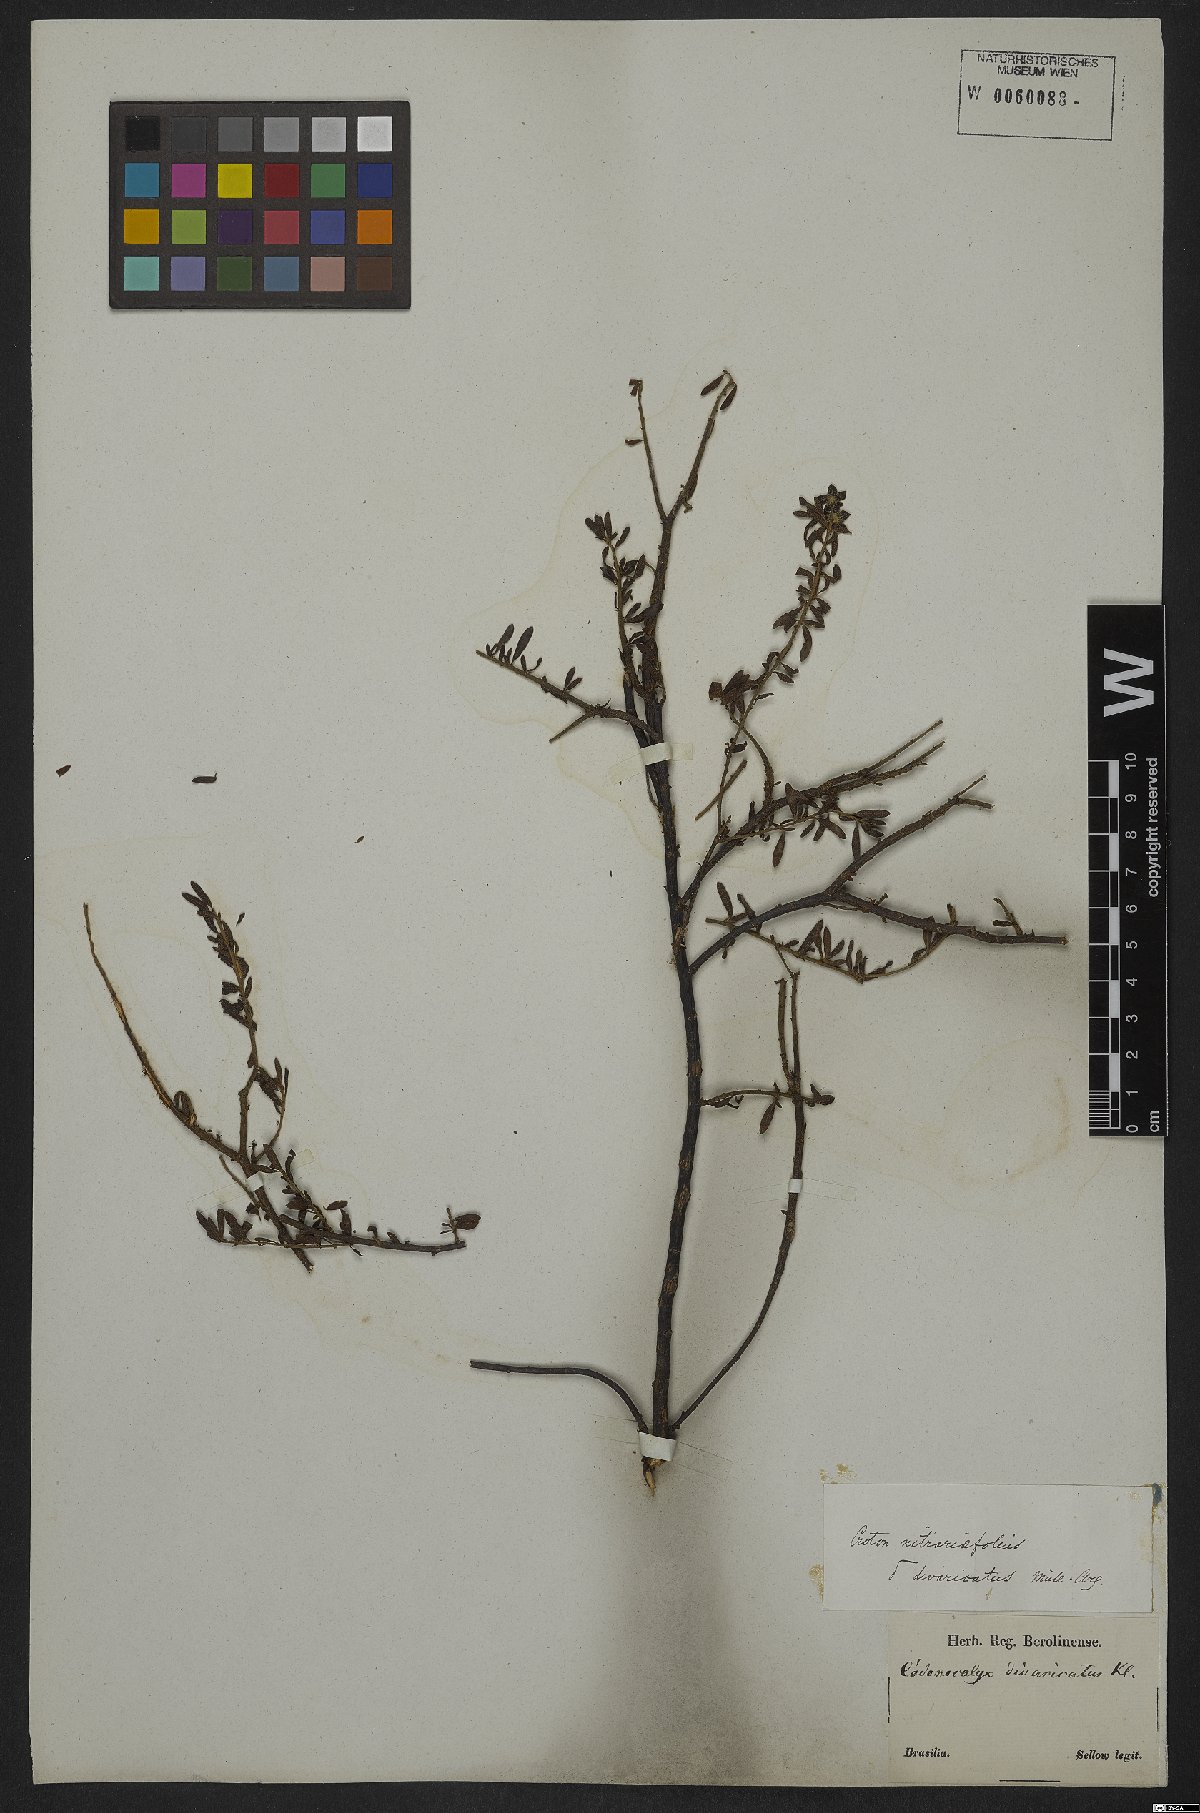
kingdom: Plantae
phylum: Tracheophyta
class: Magnoliopsida
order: Malpighiales
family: Euphorbiaceae
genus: Croton
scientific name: Croton nitrariifolius
